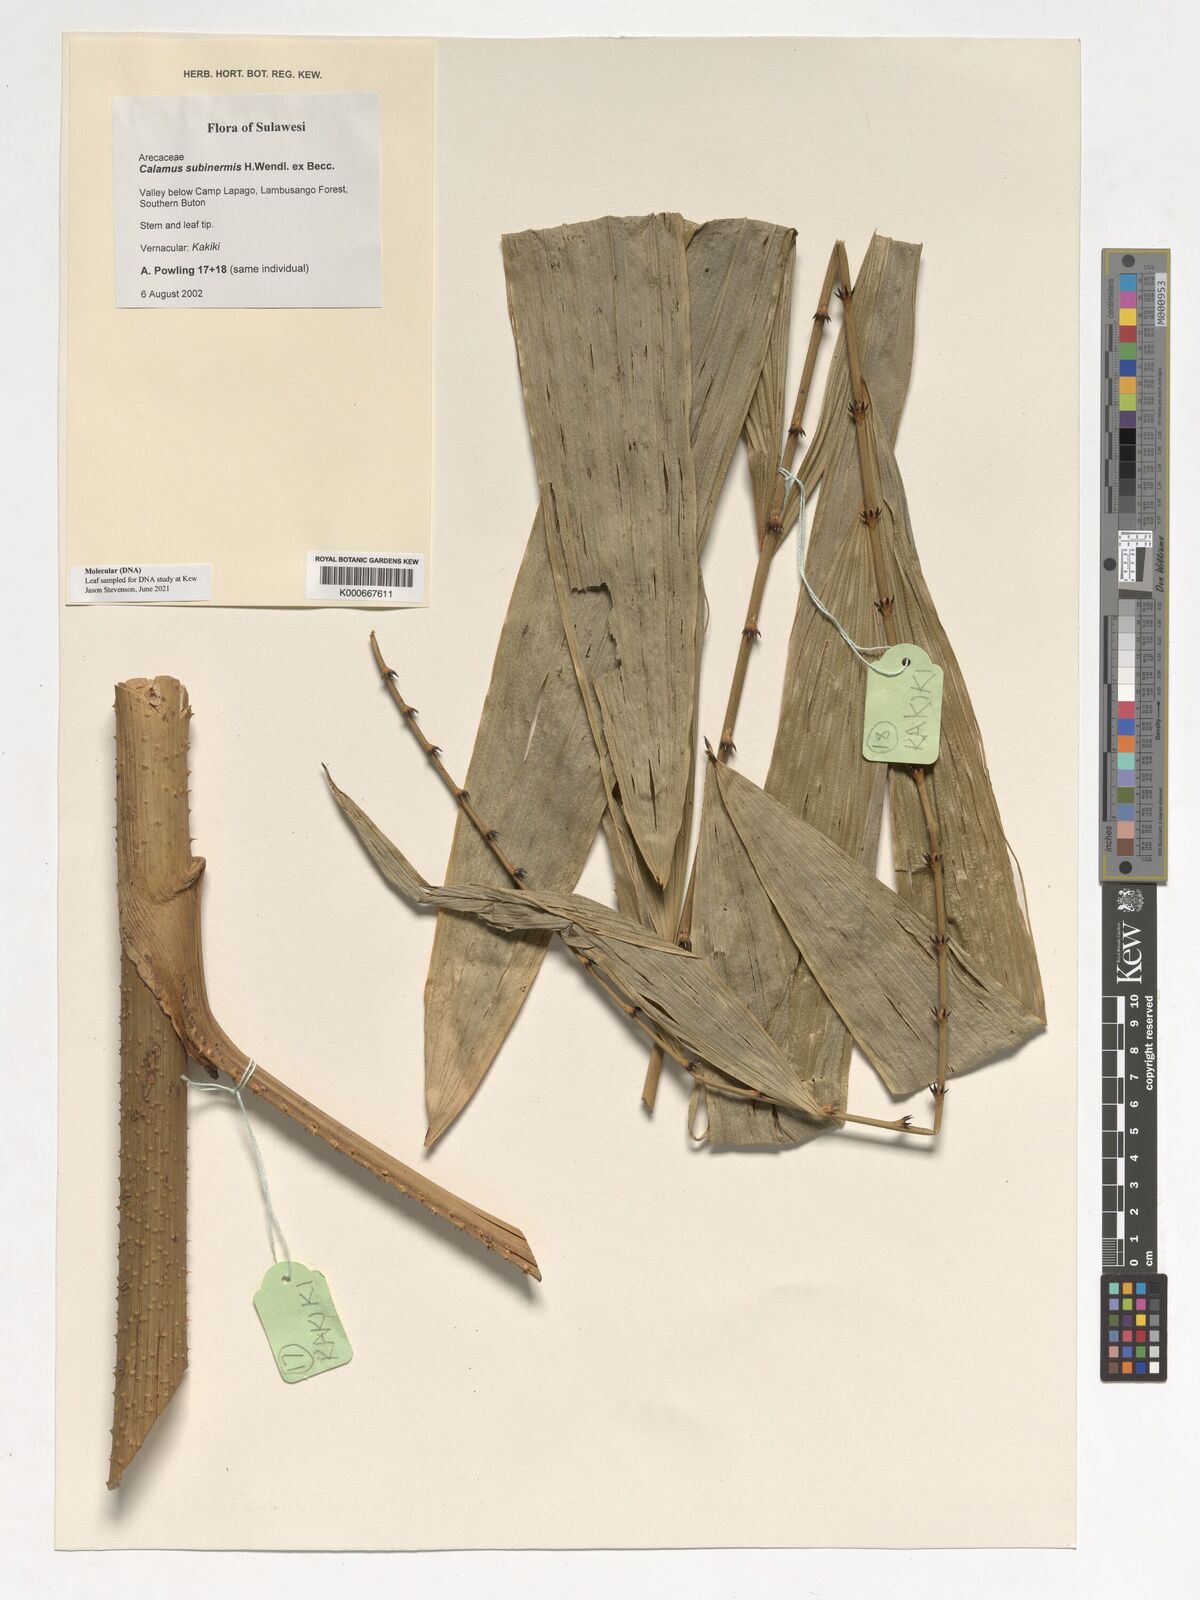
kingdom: Plantae
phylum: Tracheophyta
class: Liliopsida
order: Arecales
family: Arecaceae
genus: Calamus
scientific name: Calamus moseleyanus
